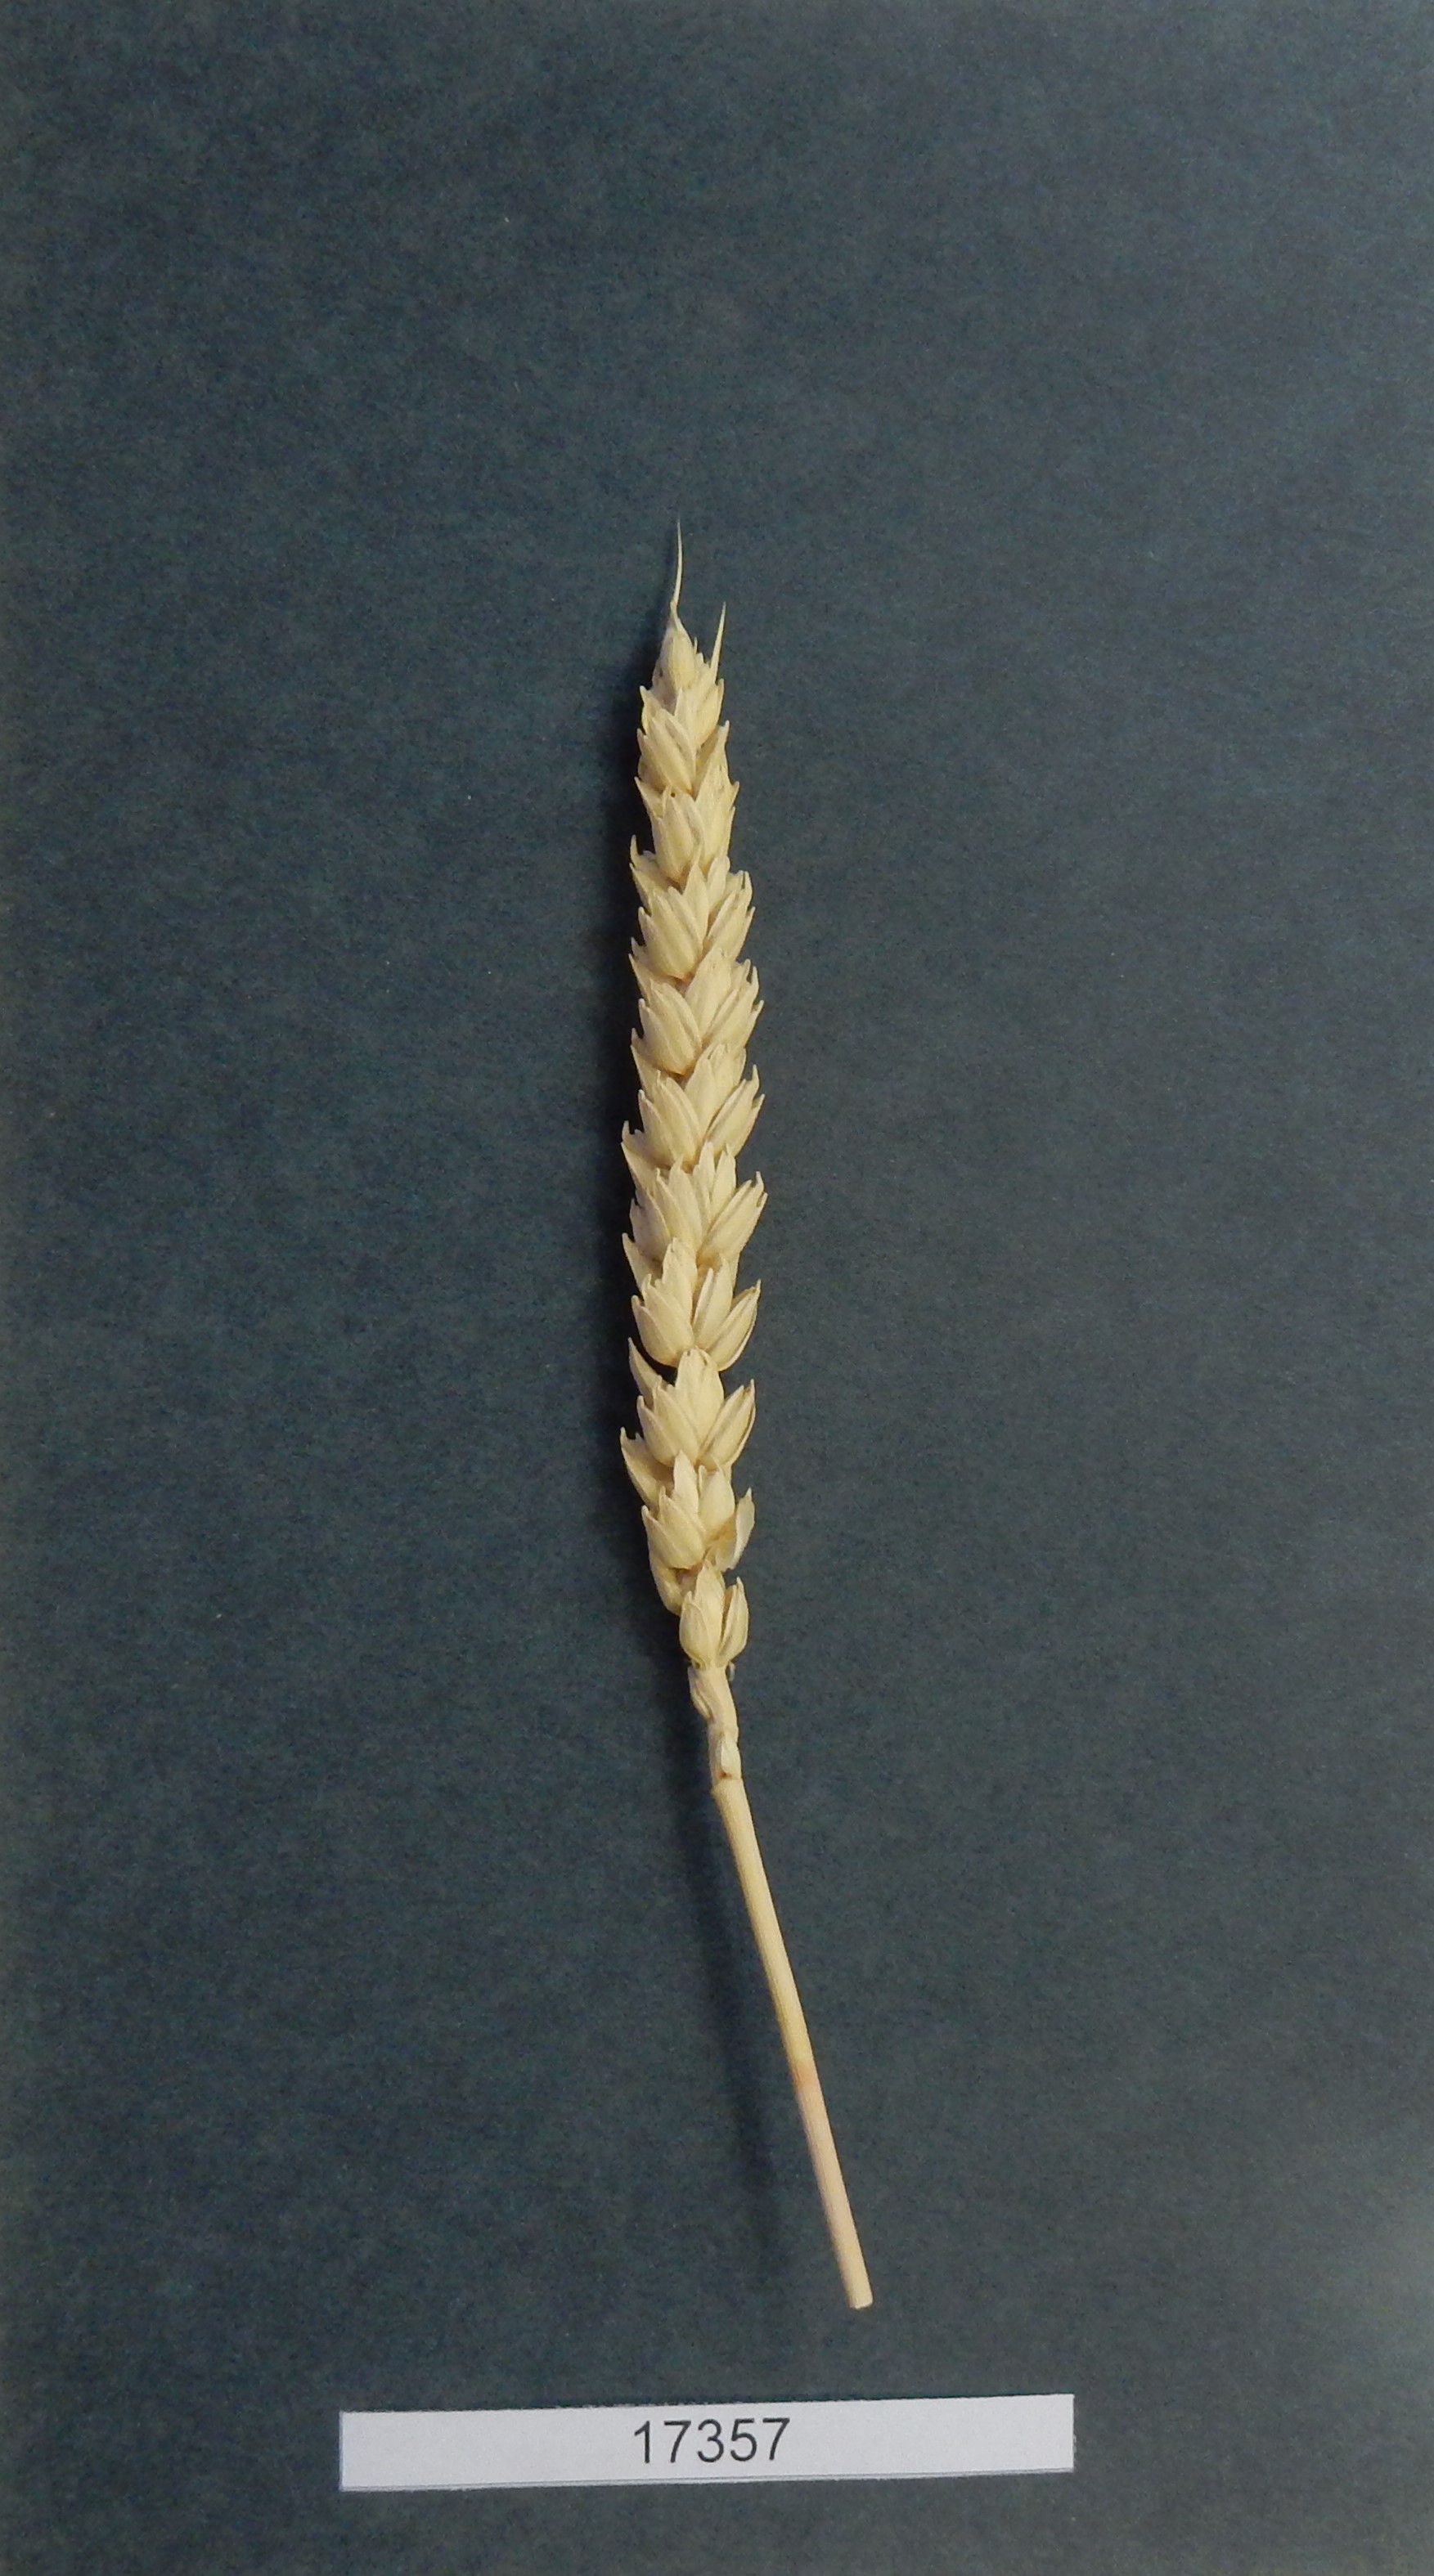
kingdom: Plantae
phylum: Tracheophyta
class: Liliopsida
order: Poales
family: Poaceae
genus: Triticum
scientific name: Triticum
